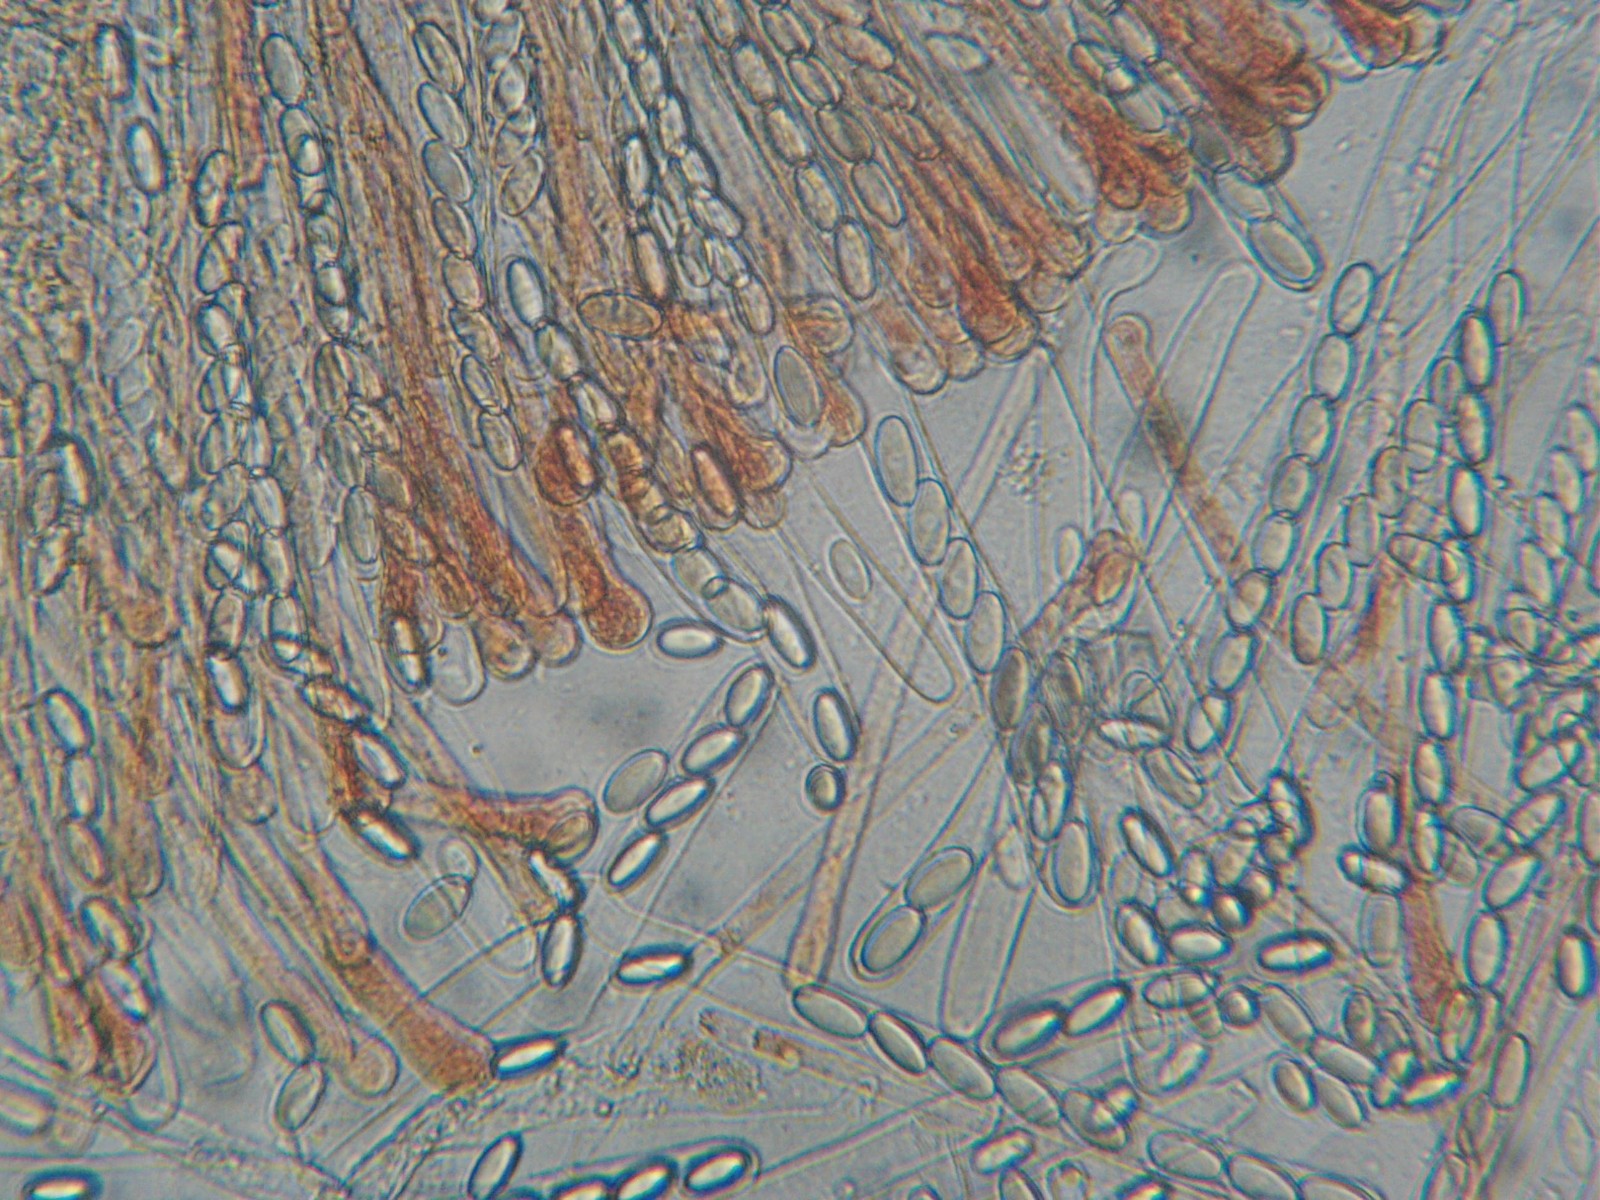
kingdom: Fungi
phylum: Ascomycota
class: Pezizomycetes
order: Pezizales
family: Pyronemataceae
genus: Cheilymenia
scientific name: Cheilymenia granulata
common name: møgbæger
